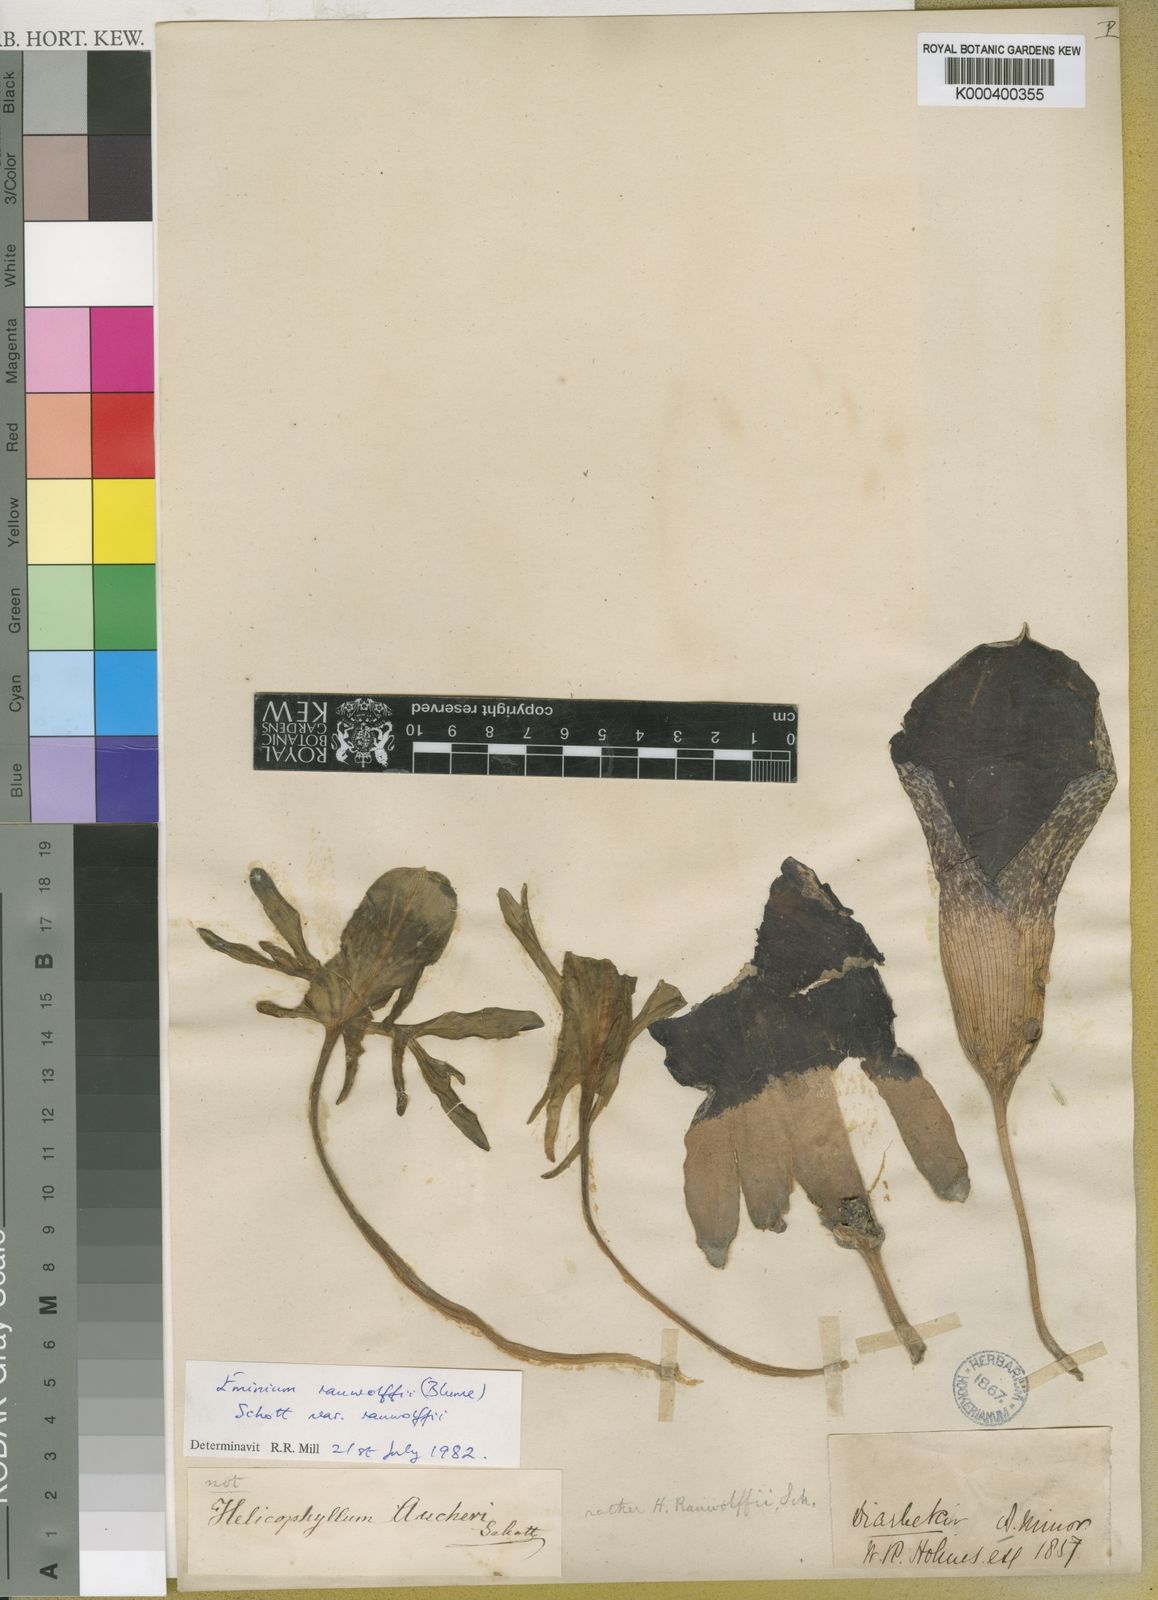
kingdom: Plantae
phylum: Tracheophyta
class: Liliopsida
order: Alismatales
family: Araceae
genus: Eminium
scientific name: Eminium rauwolffii
